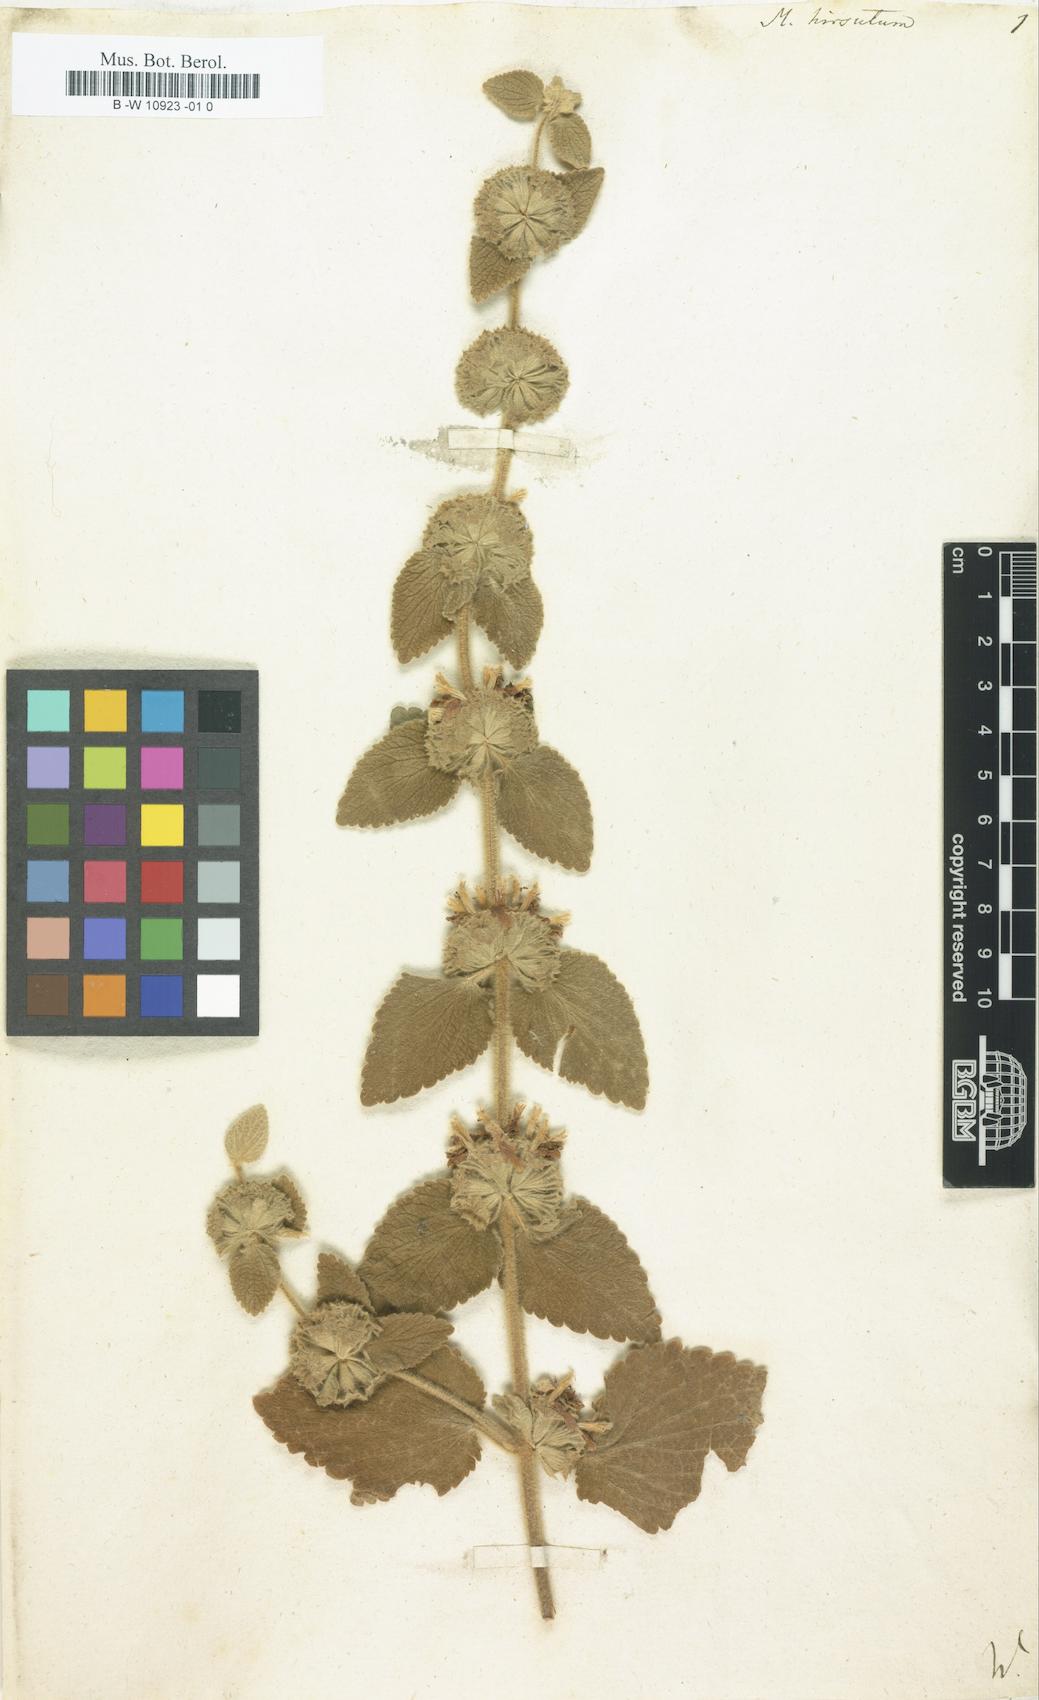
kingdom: Plantae
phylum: Tracheophyta
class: Magnoliopsida
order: Lamiales
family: Lamiaceae
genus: Pseudodictamnus
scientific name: Pseudodictamnus hirsutus
